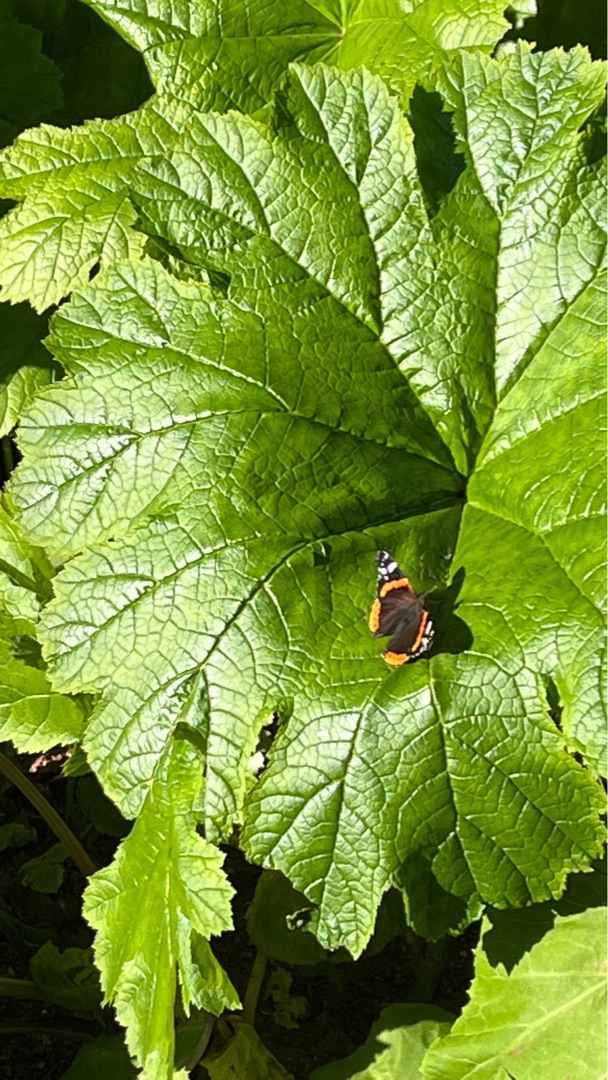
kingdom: Animalia
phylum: Arthropoda
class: Insecta
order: Lepidoptera
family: Nymphalidae
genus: Vanessa
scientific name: Vanessa atalanta
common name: Admiral
